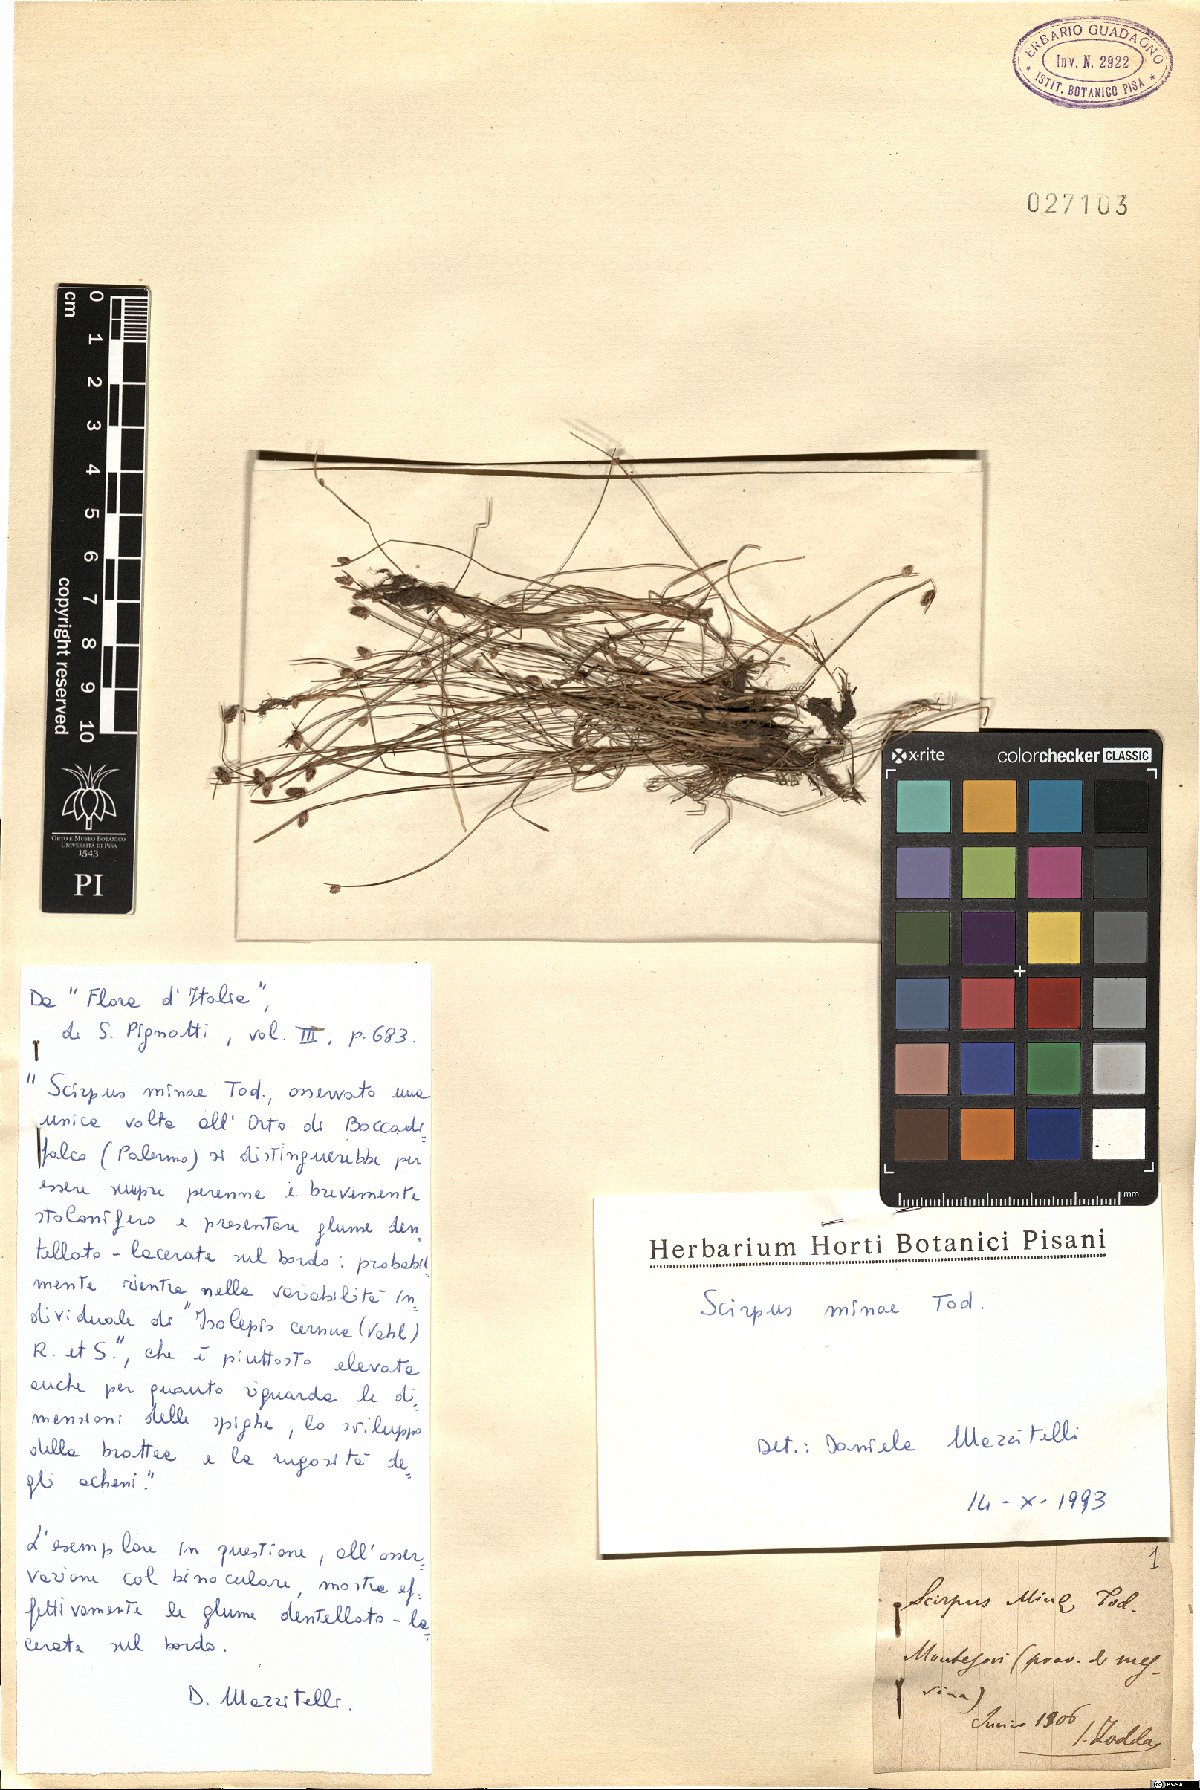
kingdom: Plantae
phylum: Tracheophyta
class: Liliopsida
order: Poales
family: Cyperaceae
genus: Isolepis
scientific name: Isolepis cernua
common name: Slender club-rush
